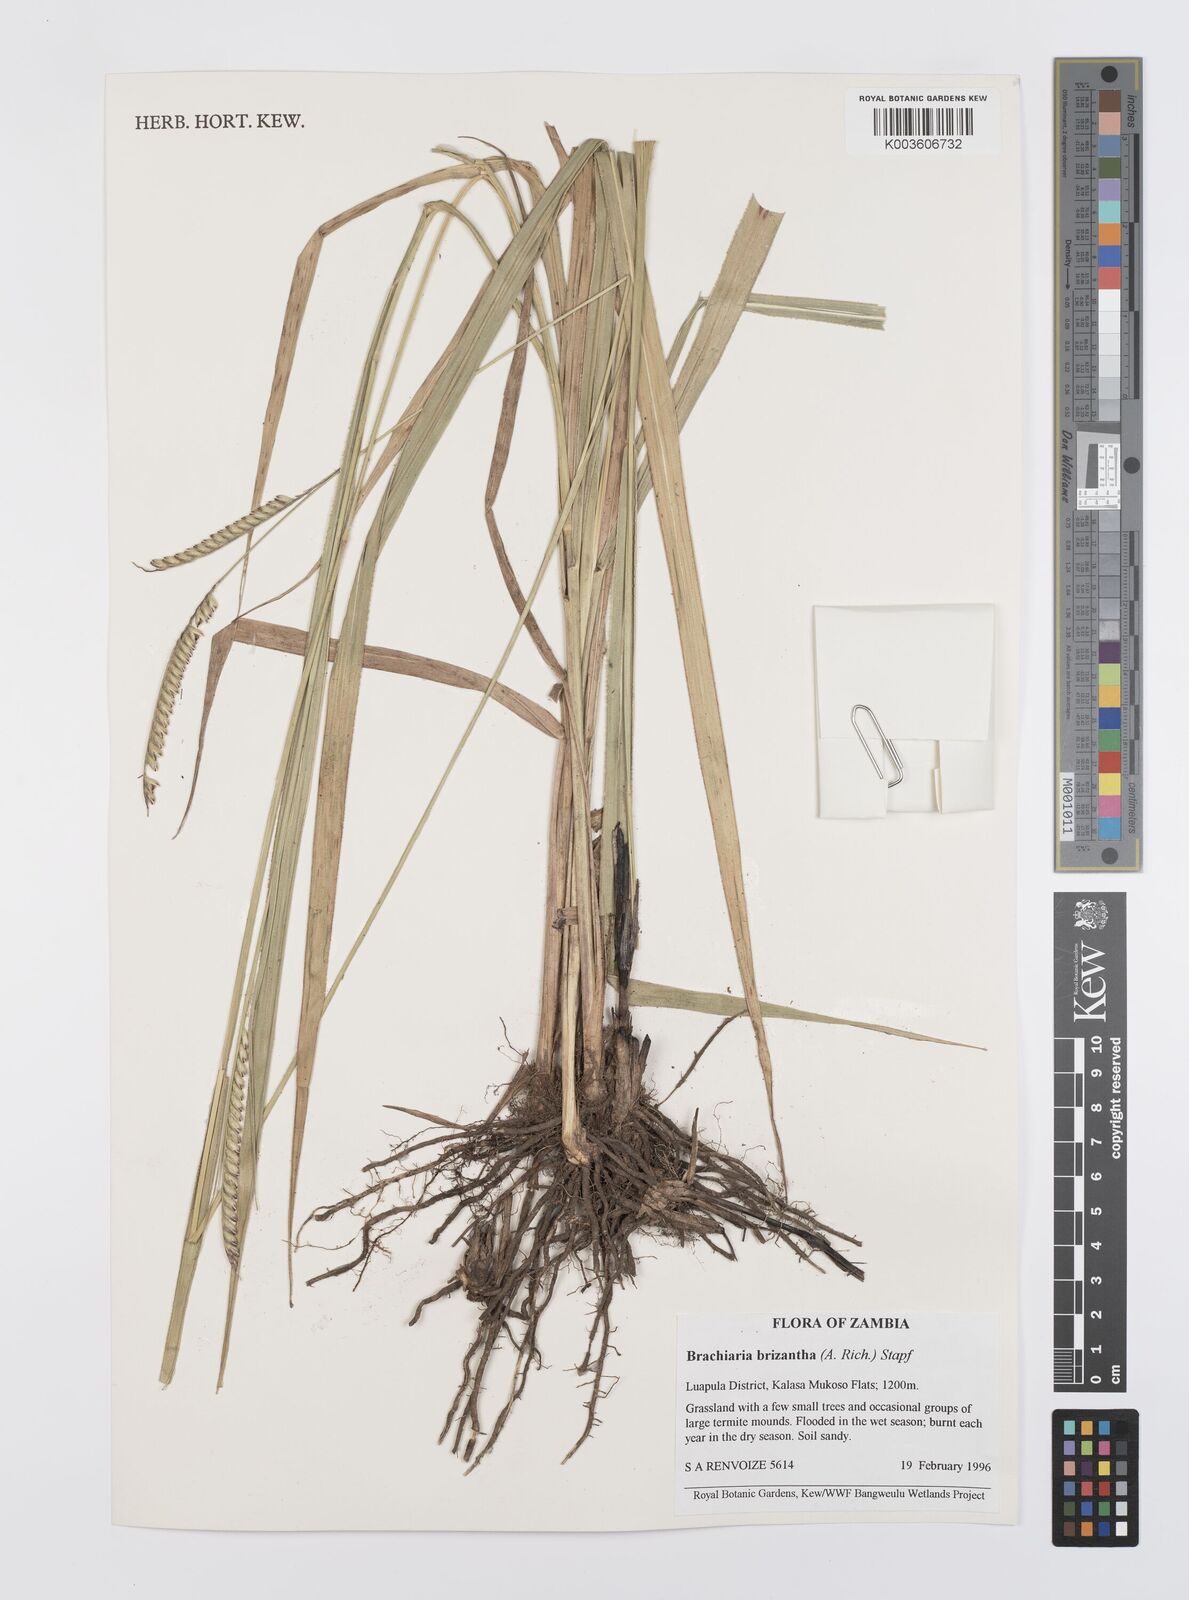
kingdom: Plantae
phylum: Tracheophyta
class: Liliopsida
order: Poales
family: Poaceae
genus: Urochloa
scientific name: Urochloa brizantha
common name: Palisade signalgrass
